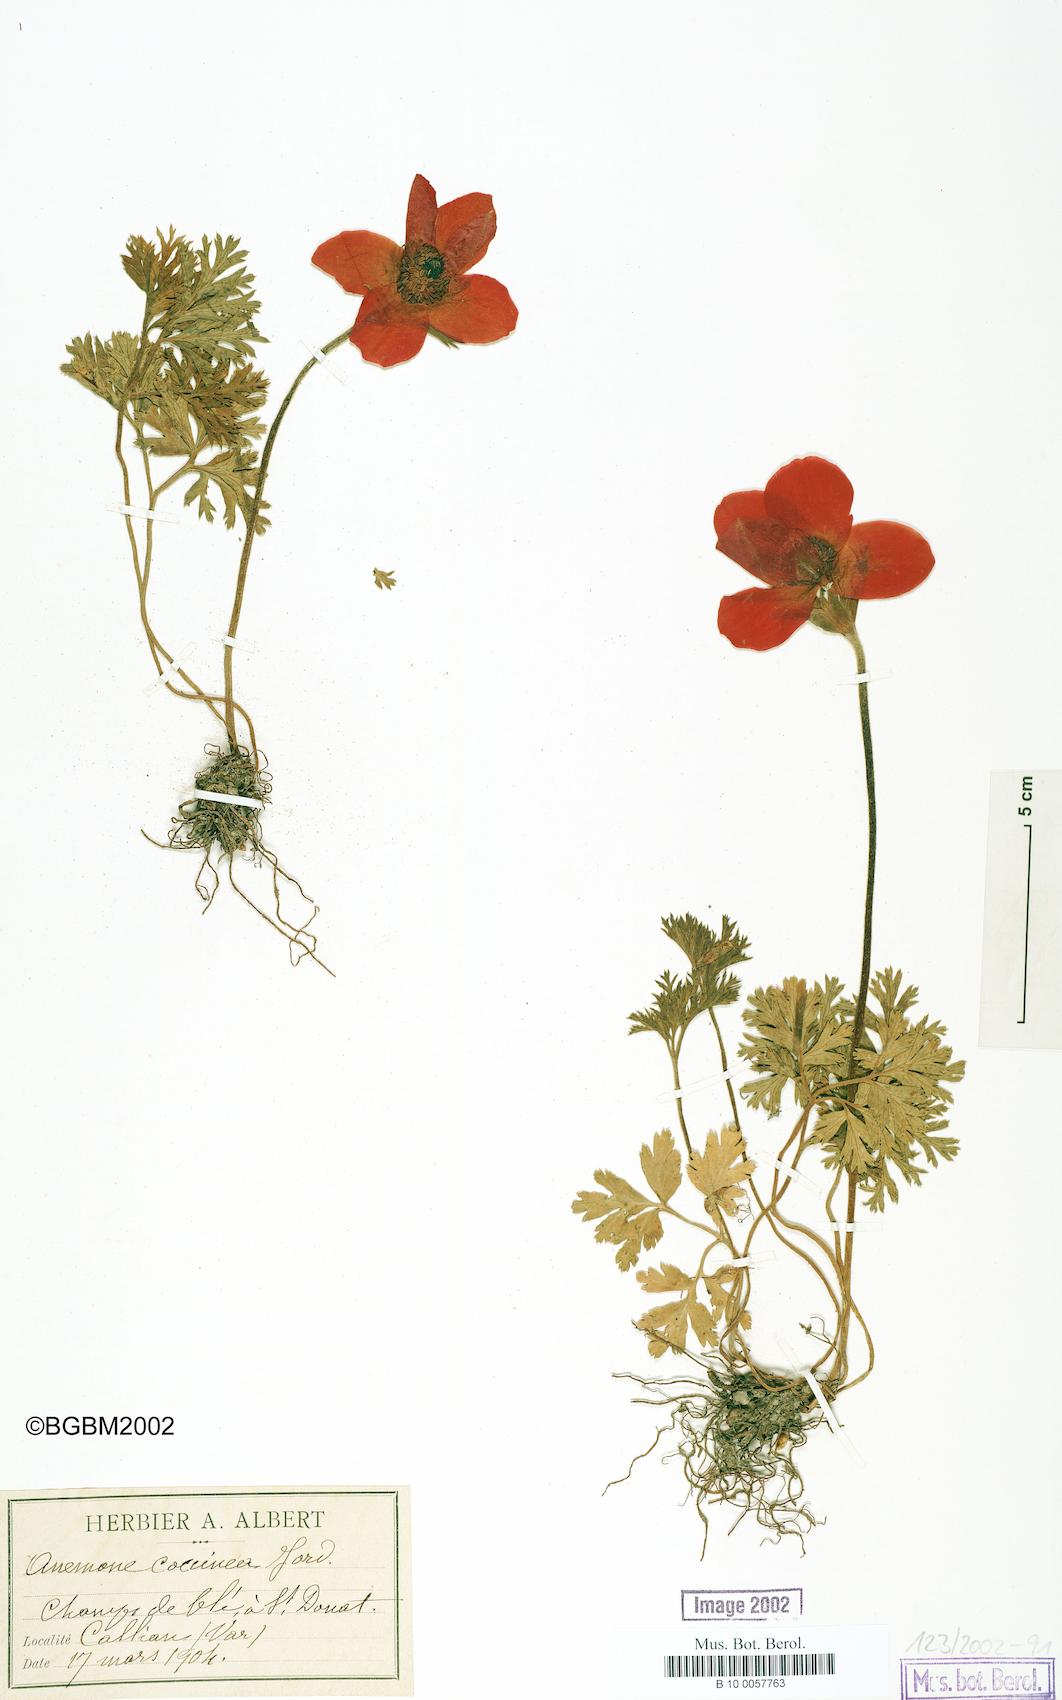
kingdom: Plantae
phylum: Tracheophyta
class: Magnoliopsida
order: Ranunculales
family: Ranunculaceae
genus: Anemone
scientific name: Anemone coronaria
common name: Poppy anemone
